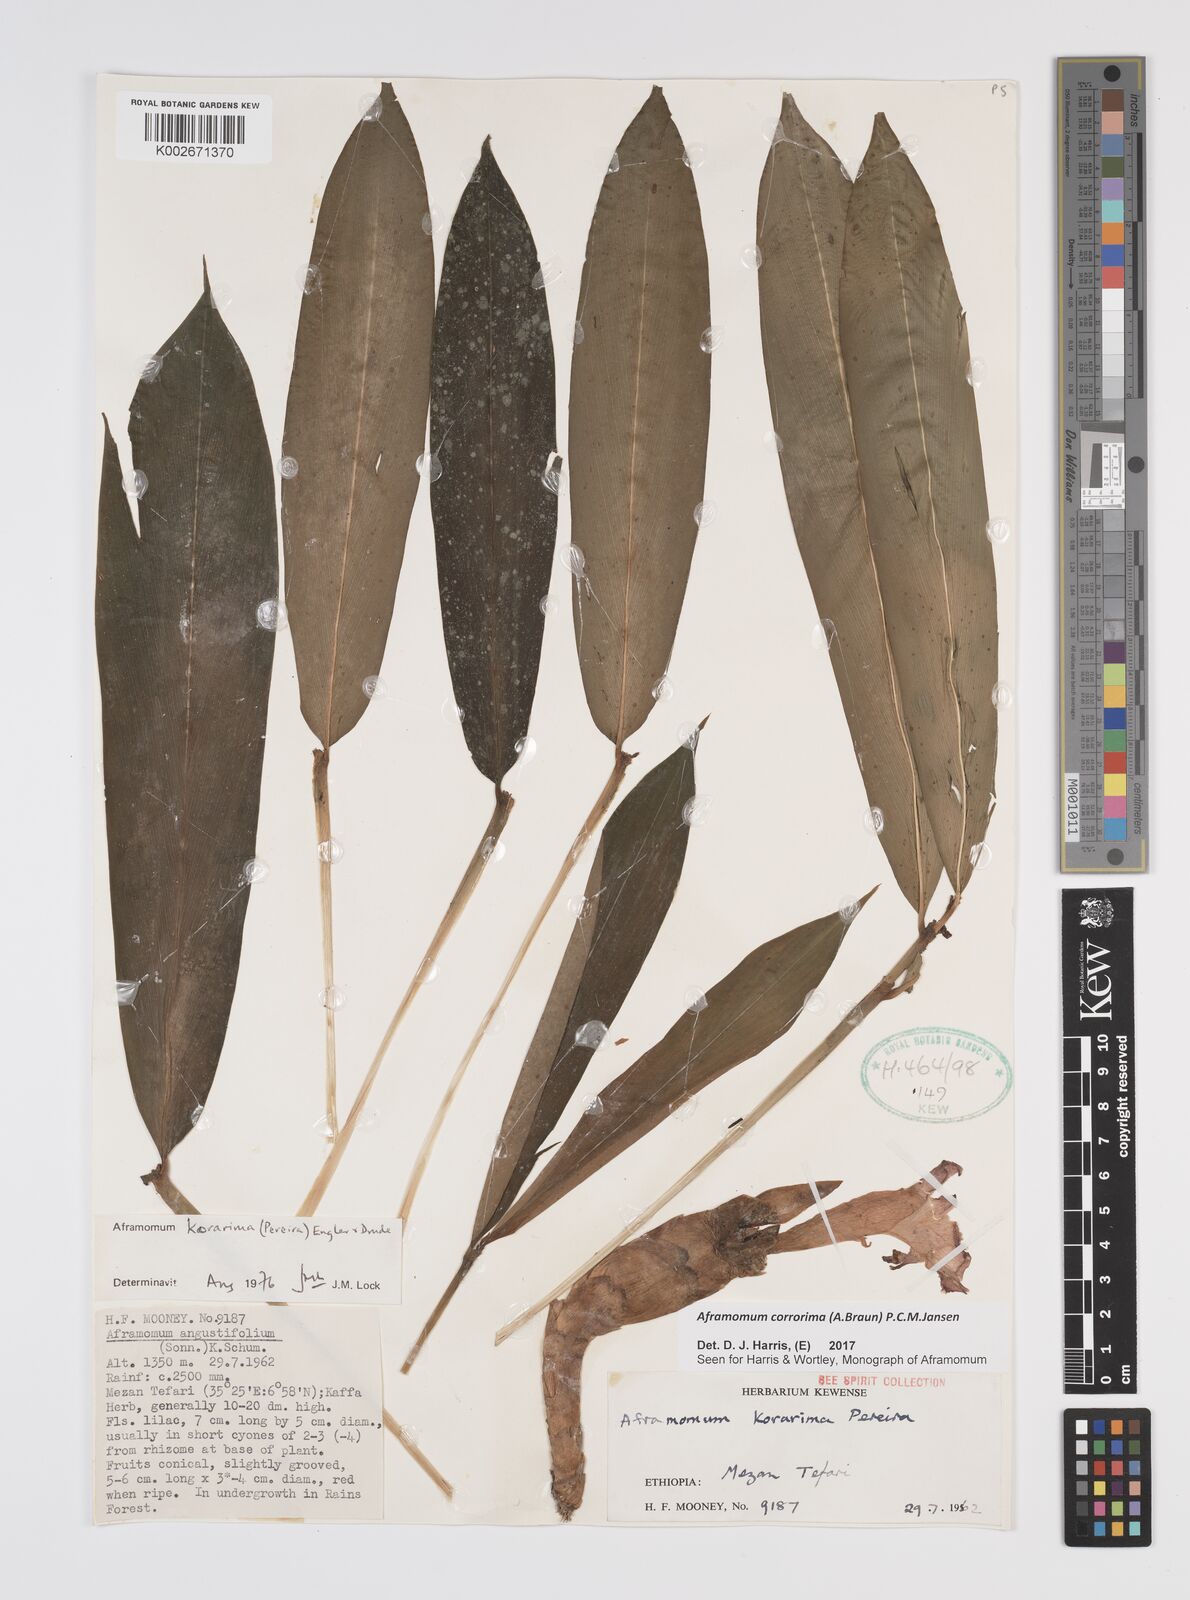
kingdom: Plantae
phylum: Tracheophyta
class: Liliopsida
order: Zingiberales
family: Zingiberaceae
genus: Aframomum
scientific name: Aframomum corrorima
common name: Ethiopian cardamom
